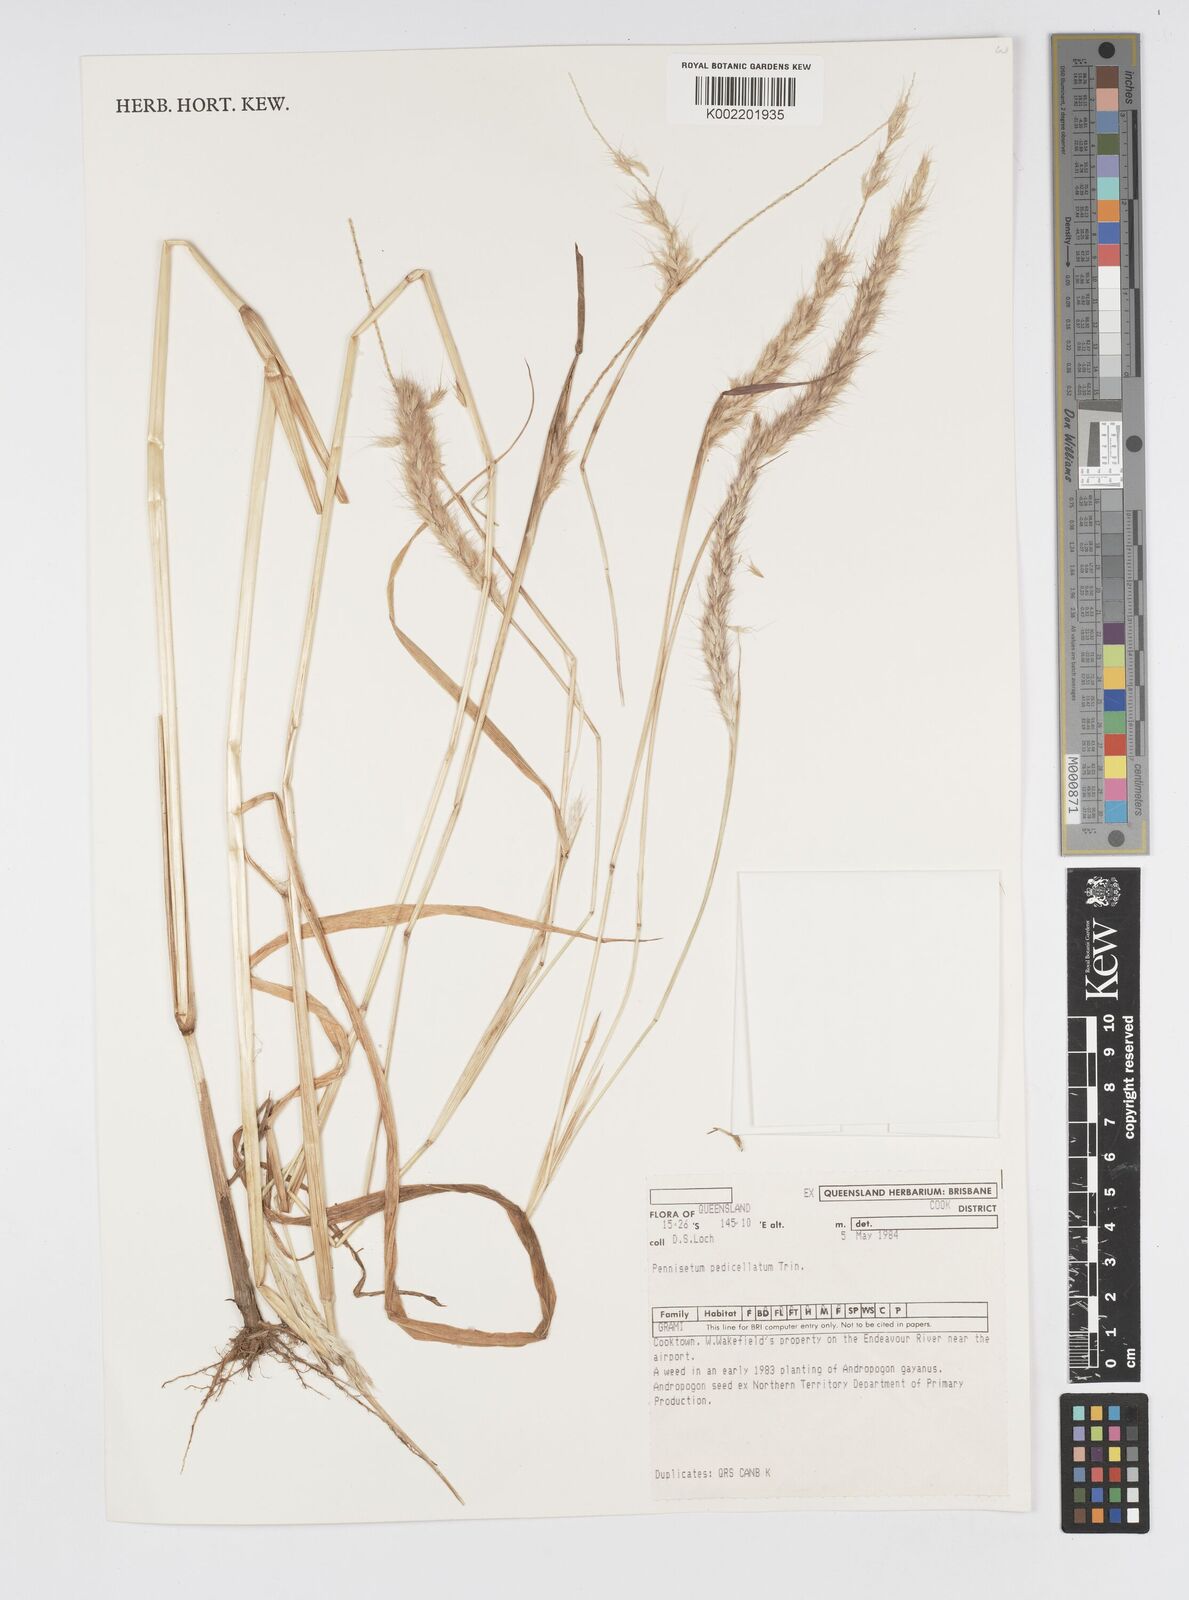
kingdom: Plantae
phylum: Tracheophyta
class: Liliopsida
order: Poales
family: Poaceae
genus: Cenchrus
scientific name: Cenchrus pedicellatus
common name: Hairy fountain grass
